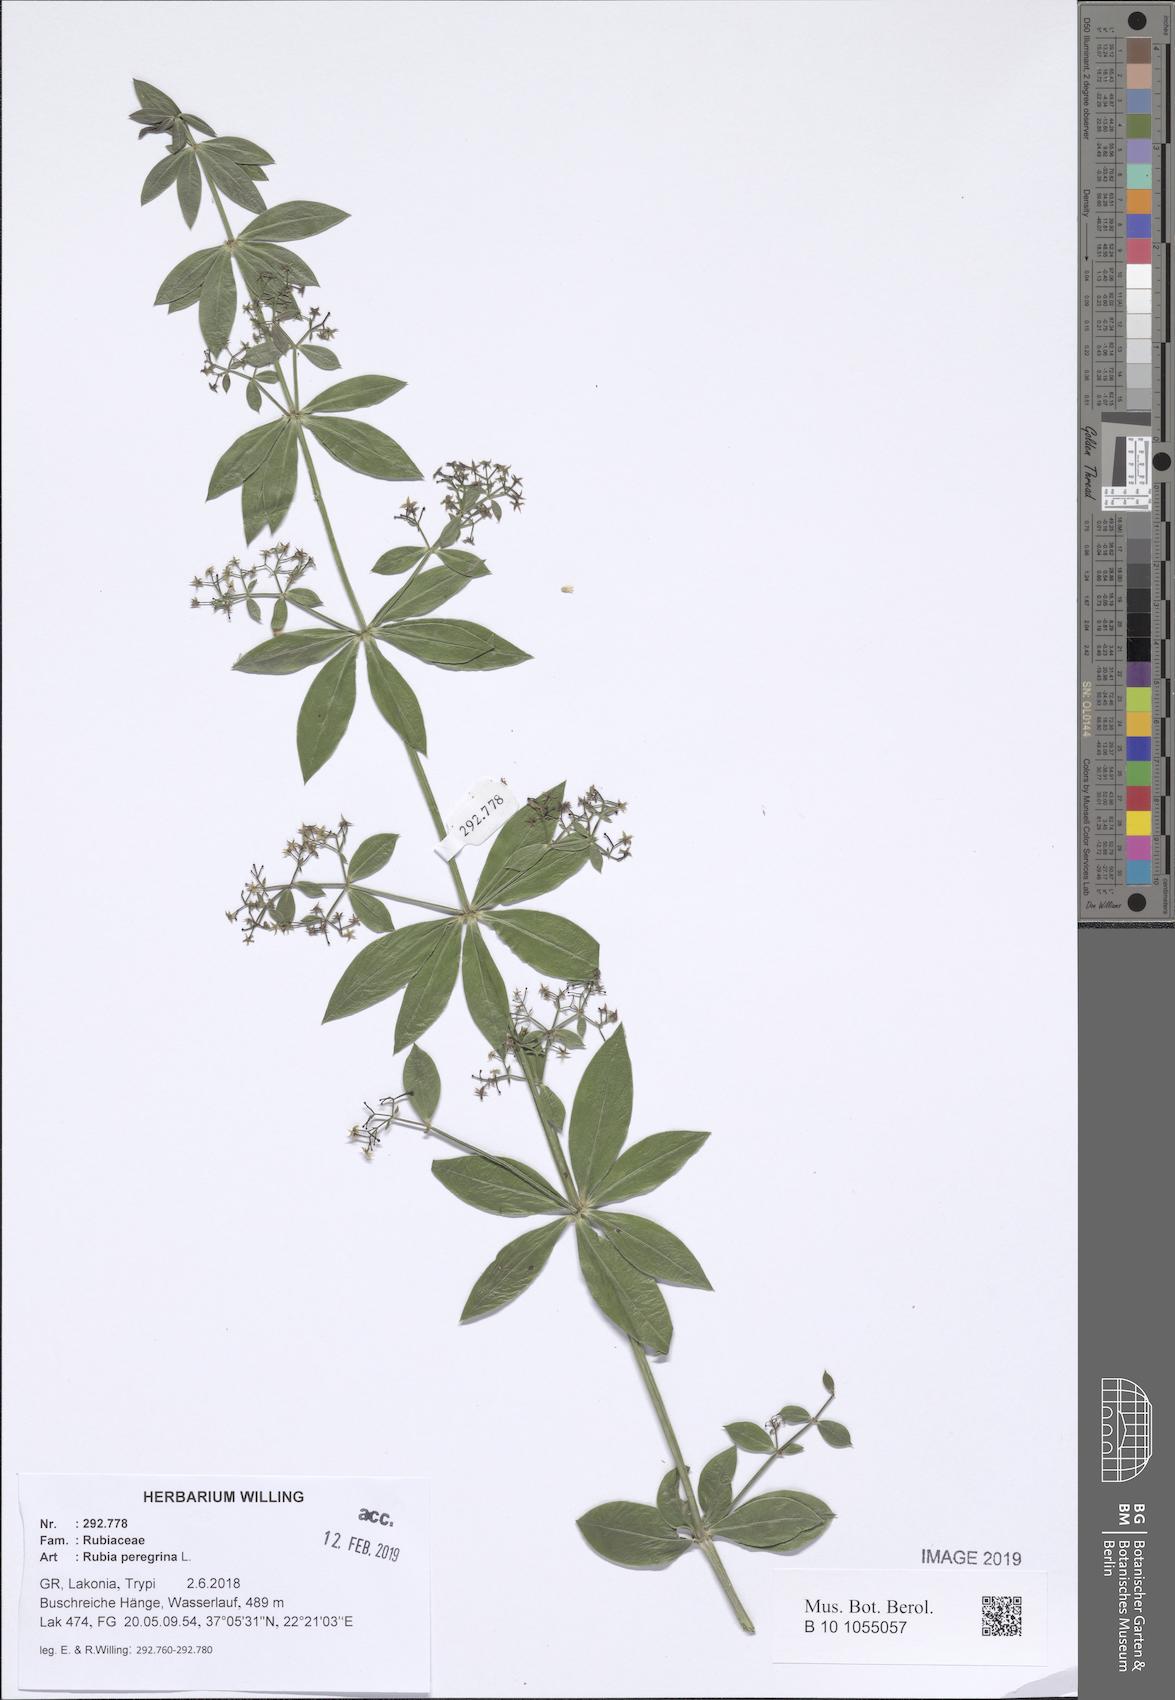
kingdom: Plantae
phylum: Tracheophyta
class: Magnoliopsida
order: Gentianales
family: Rubiaceae
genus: Rubia
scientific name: Rubia peregrina
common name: Wild madder
